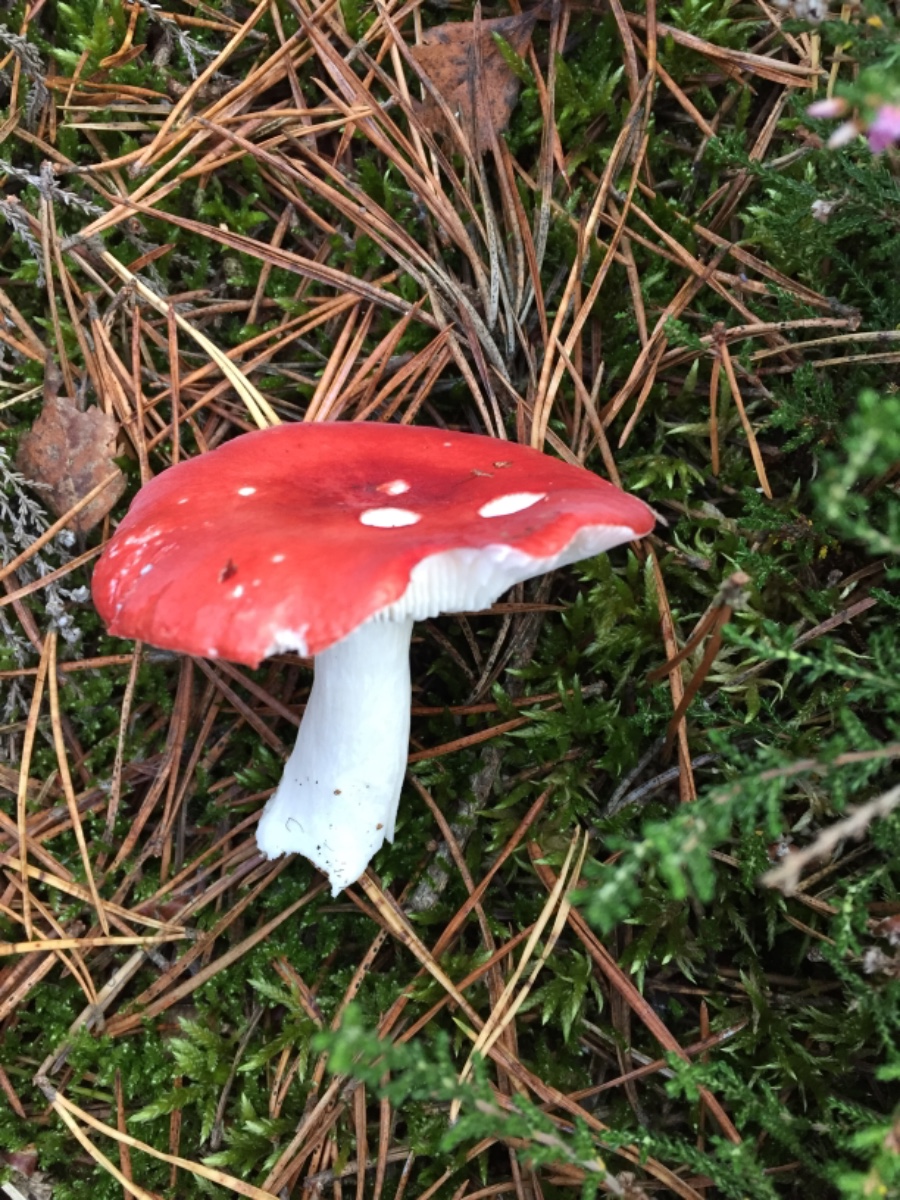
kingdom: Fungi
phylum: Basidiomycota
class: Agaricomycetes
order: Russulales
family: Russulaceae
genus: Russula
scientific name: Russula emetica
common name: stor gift-skørhat
